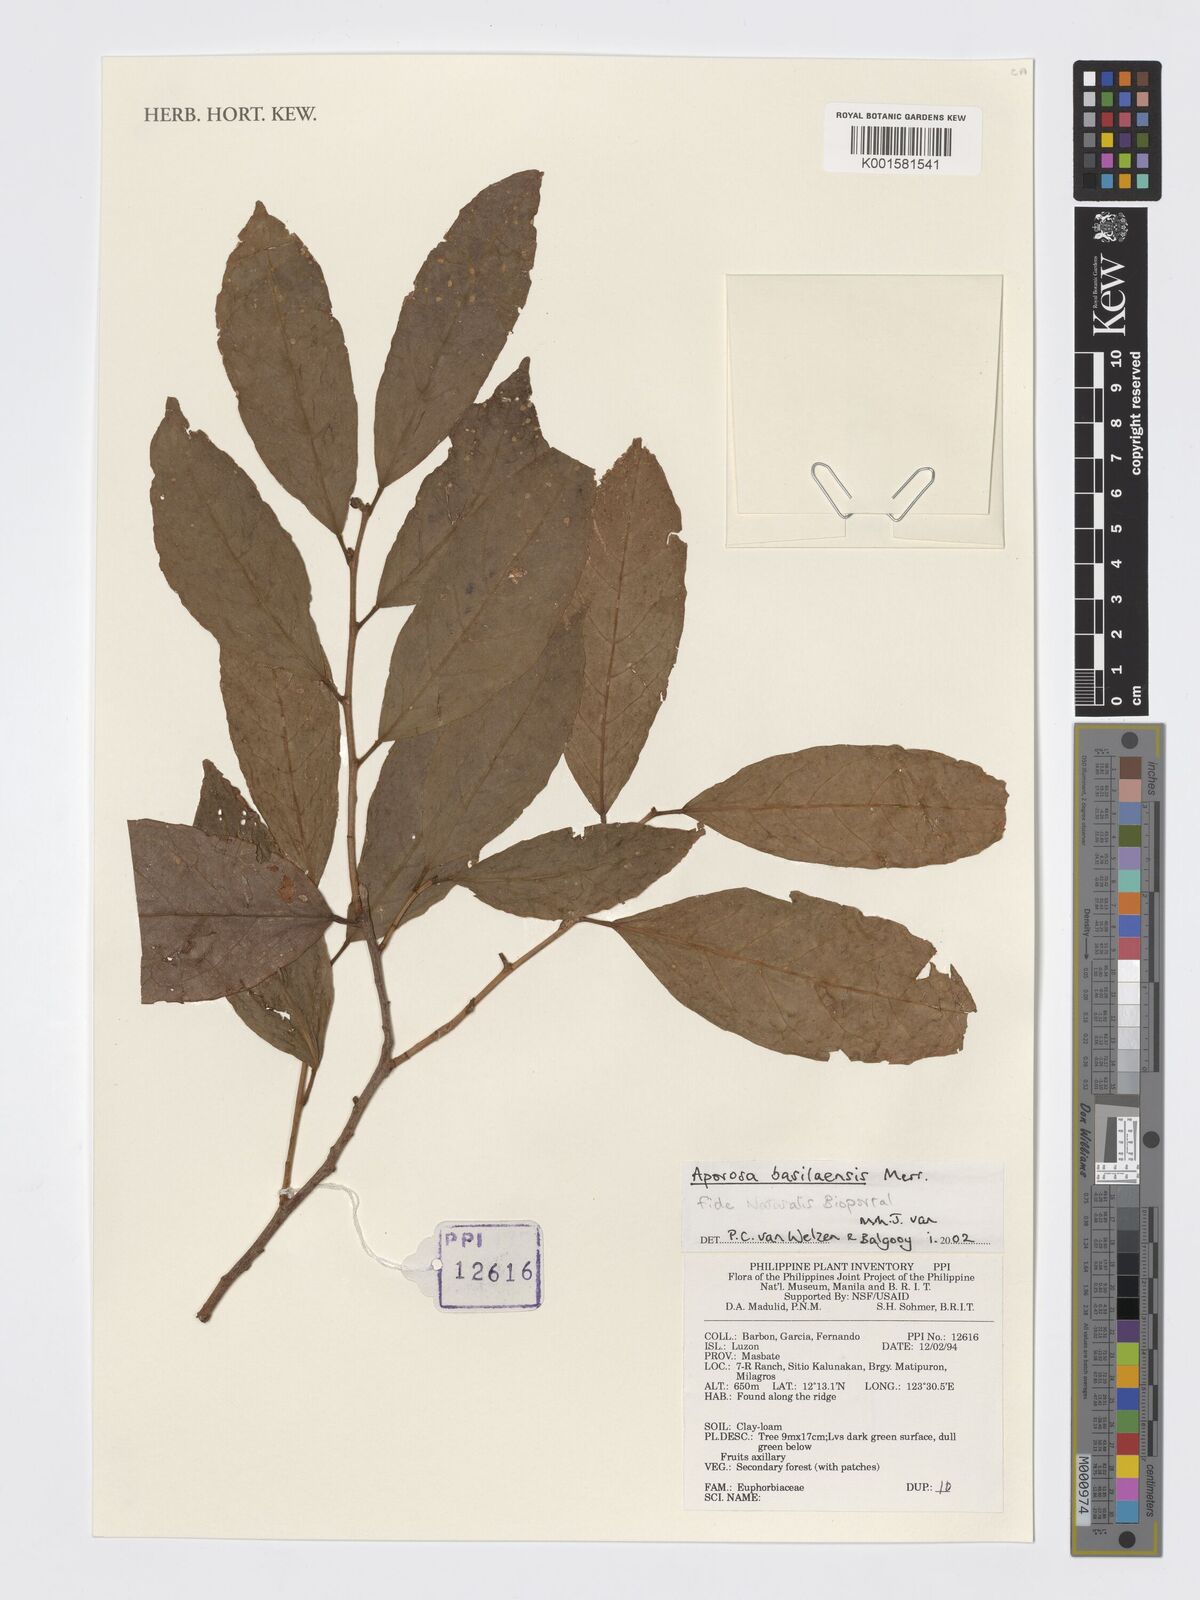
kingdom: Plantae
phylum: Tracheophyta
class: Magnoliopsida
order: Malpighiales
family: Phyllanthaceae
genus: Aporosa
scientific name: Aporosa basilanensis
